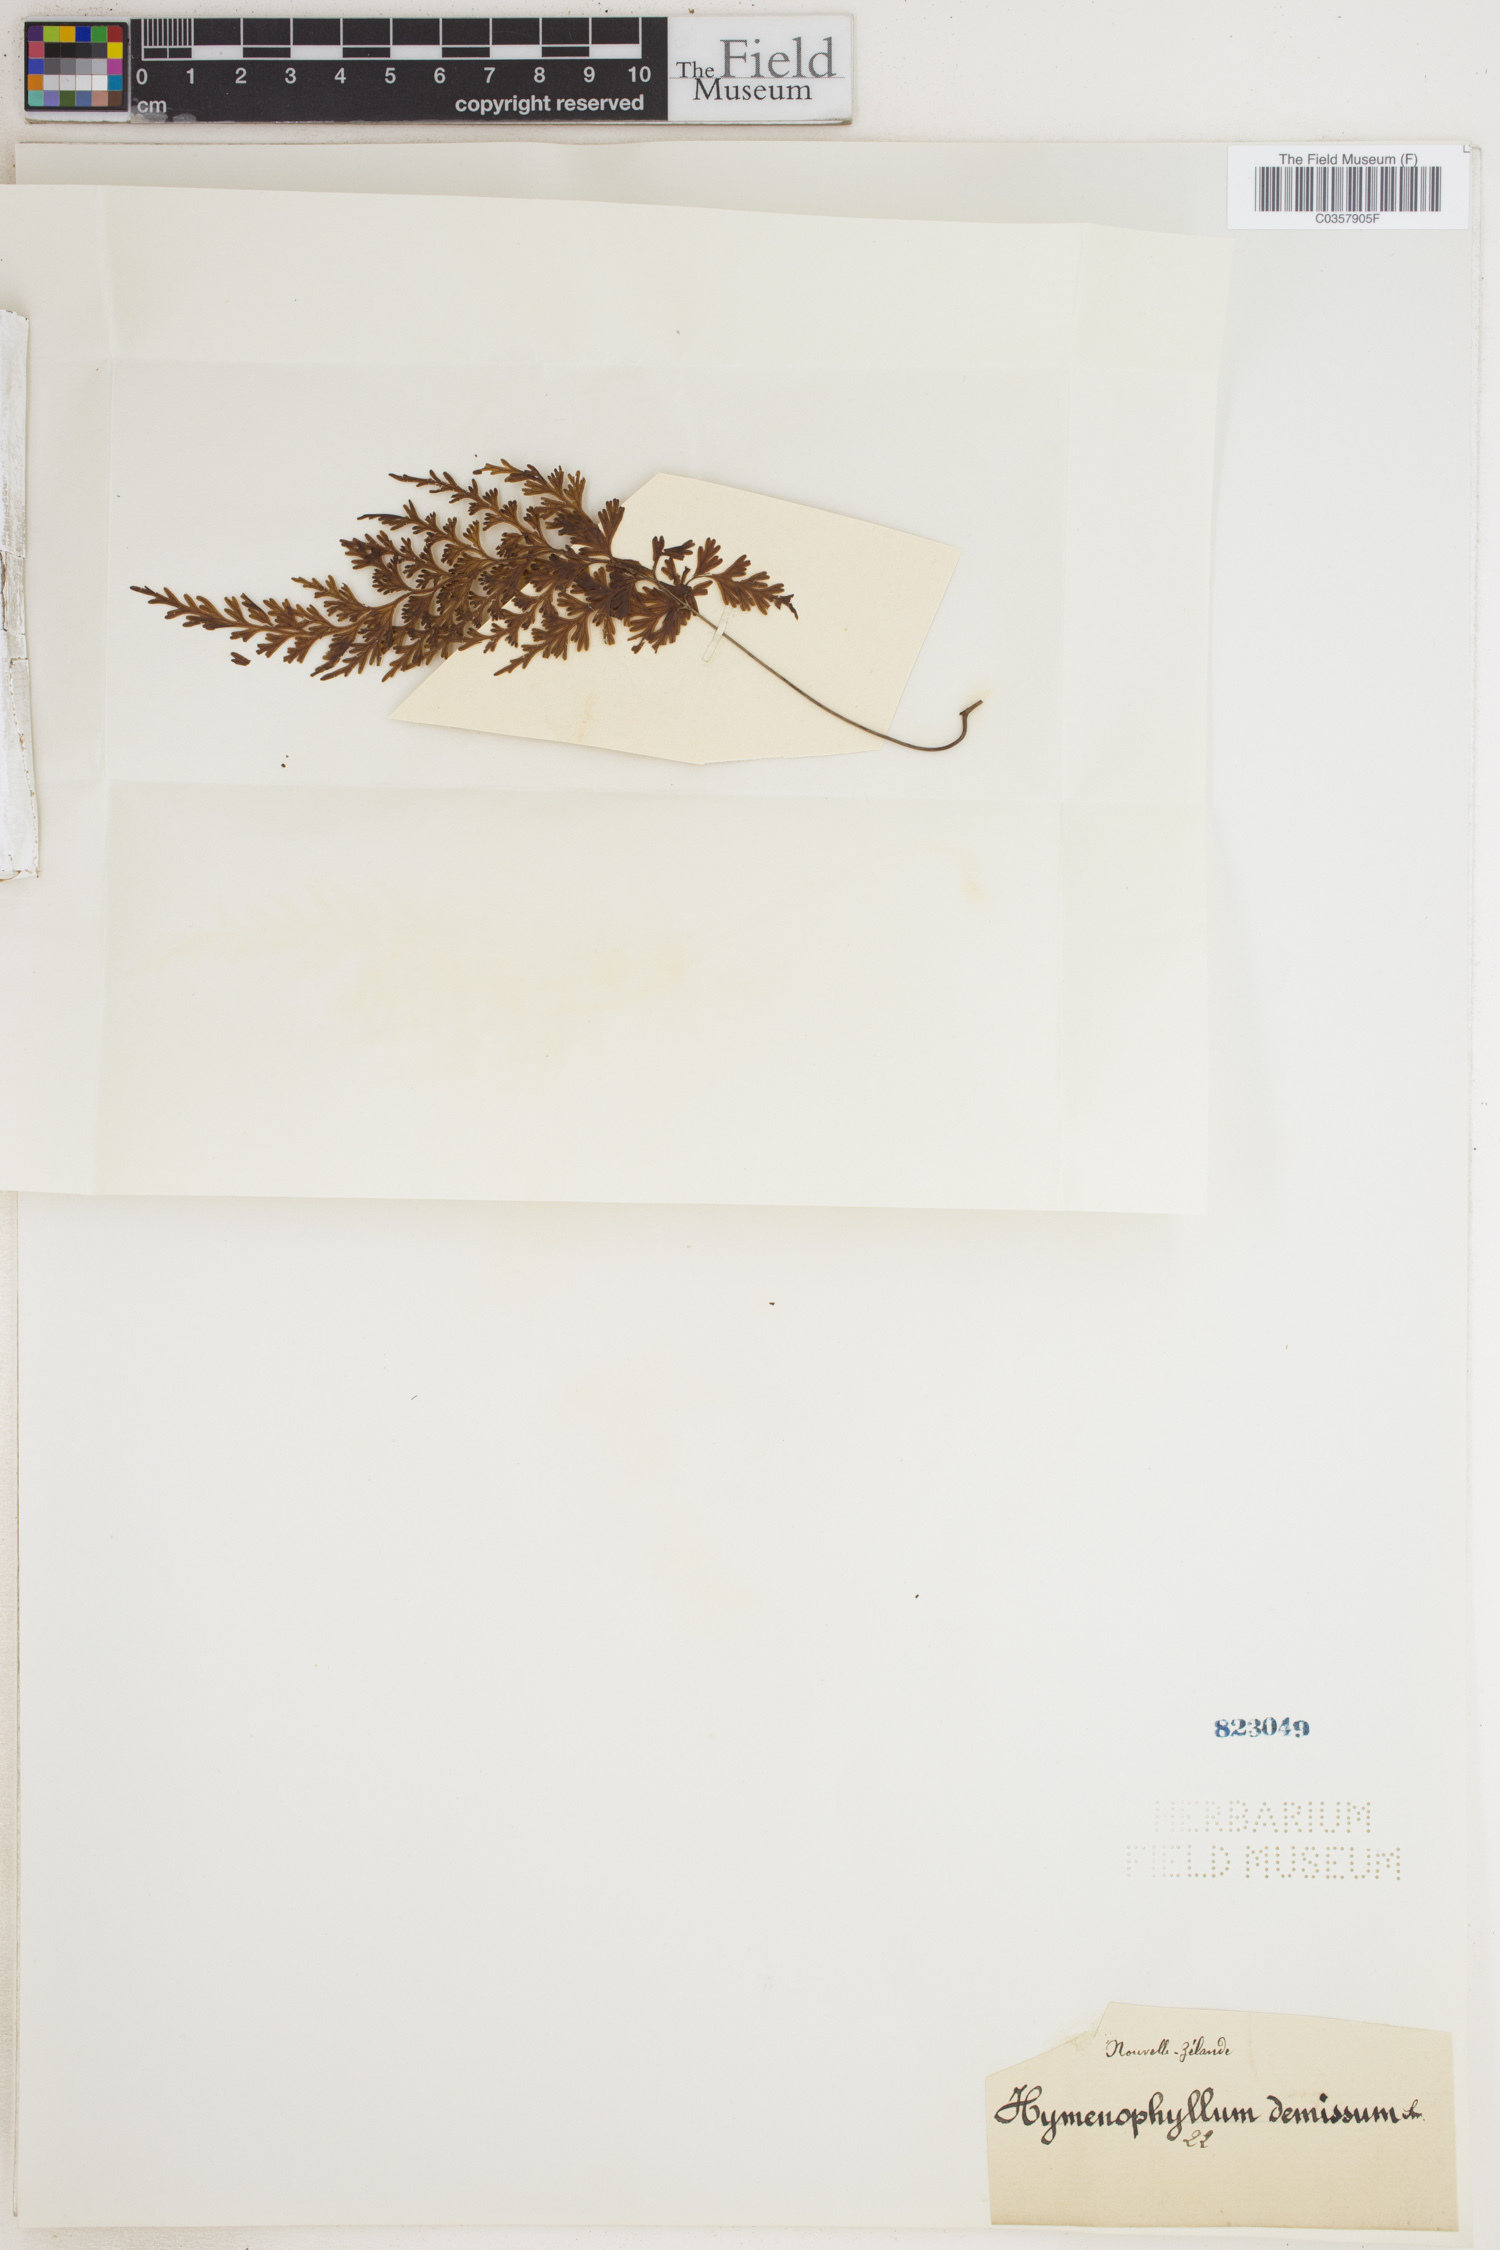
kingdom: Plantae
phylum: Tracheophyta
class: Polypodiopsida
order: Hymenophyllales
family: Hymenophyllaceae
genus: Hymenophyllum
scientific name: Hymenophyllum demissum
